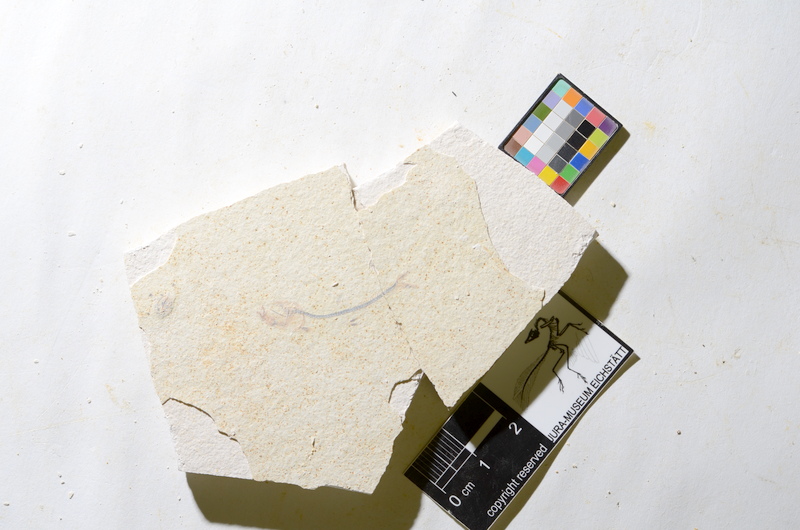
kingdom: Animalia
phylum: Chordata
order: Salmoniformes
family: Orthogonikleithridae
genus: Orthogonikleithrus
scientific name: Orthogonikleithrus hoelli
